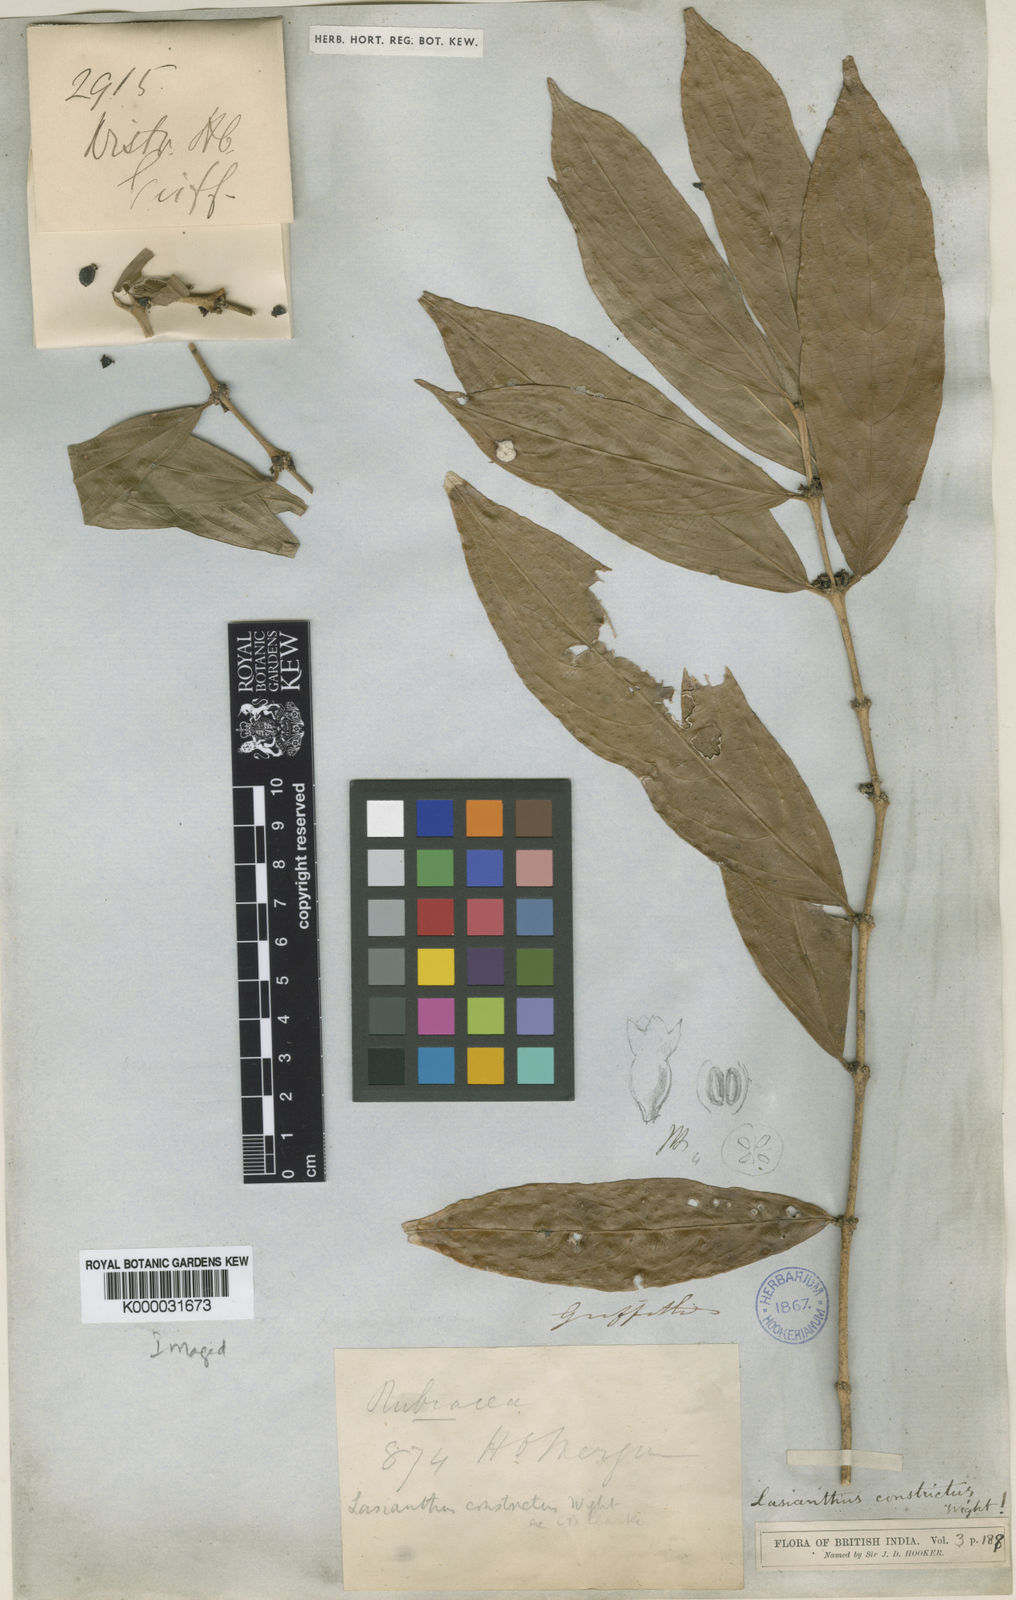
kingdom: Plantae
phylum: Tracheophyta
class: Magnoliopsida
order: Gentianales
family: Rubiaceae
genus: Lasianthus
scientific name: Lasianthus constrictus
